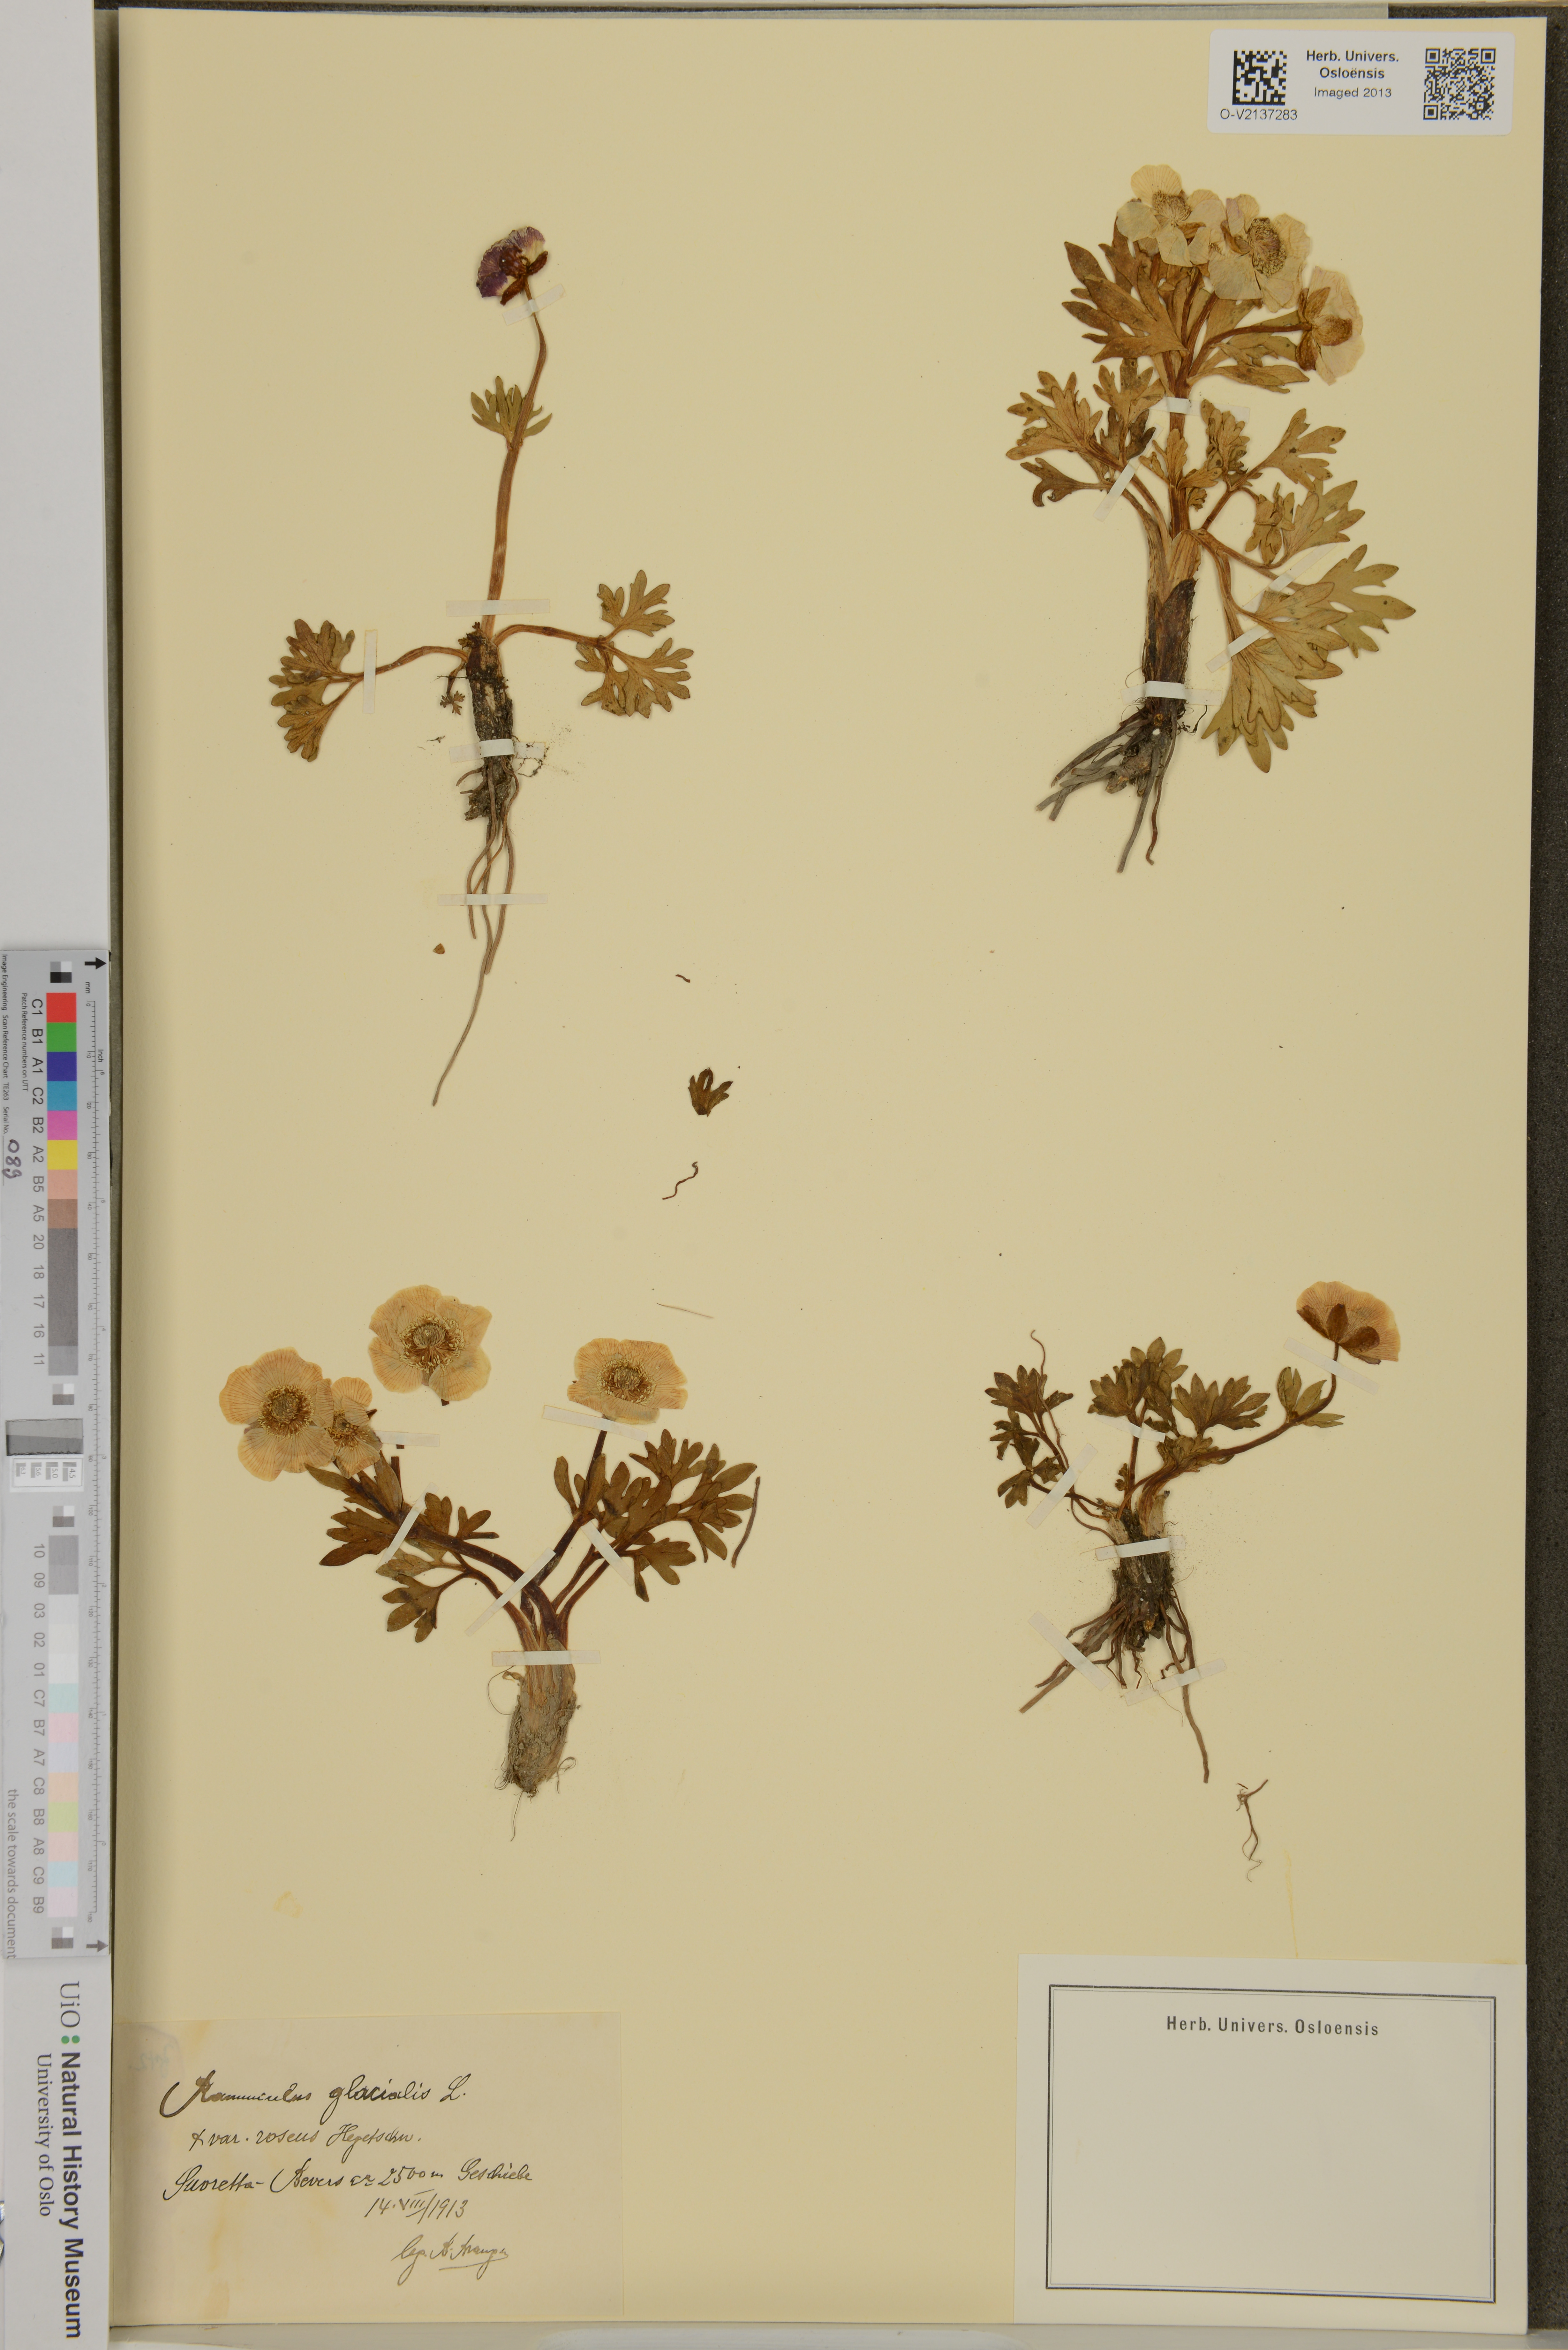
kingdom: Plantae
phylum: Tracheophyta
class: Magnoliopsida
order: Ranunculales
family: Ranunculaceae
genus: Ranunculus
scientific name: Ranunculus glacialis
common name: Glacier buttercup
